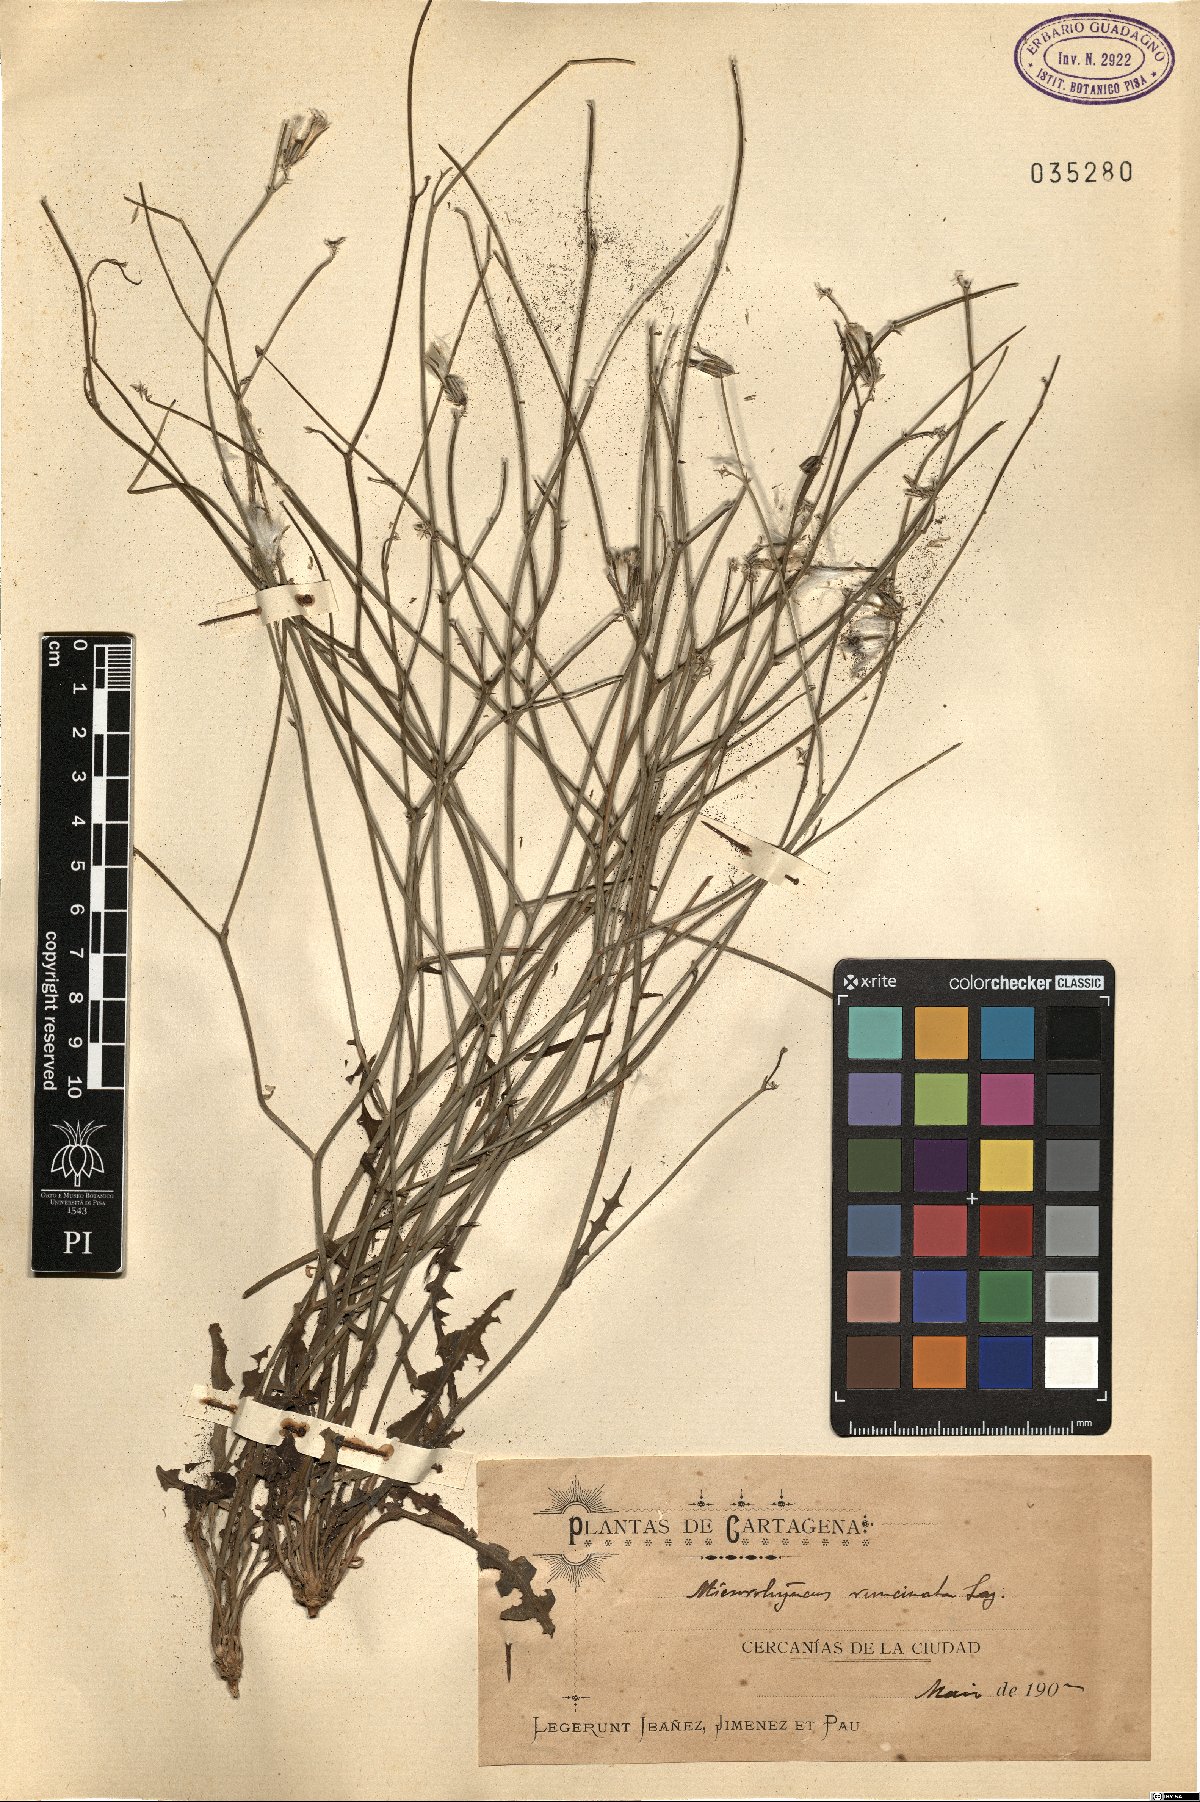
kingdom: Plantae
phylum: Tracheophyta
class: Magnoliopsida
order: Asterales
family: Asteraceae
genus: Launaea
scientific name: Launaea
